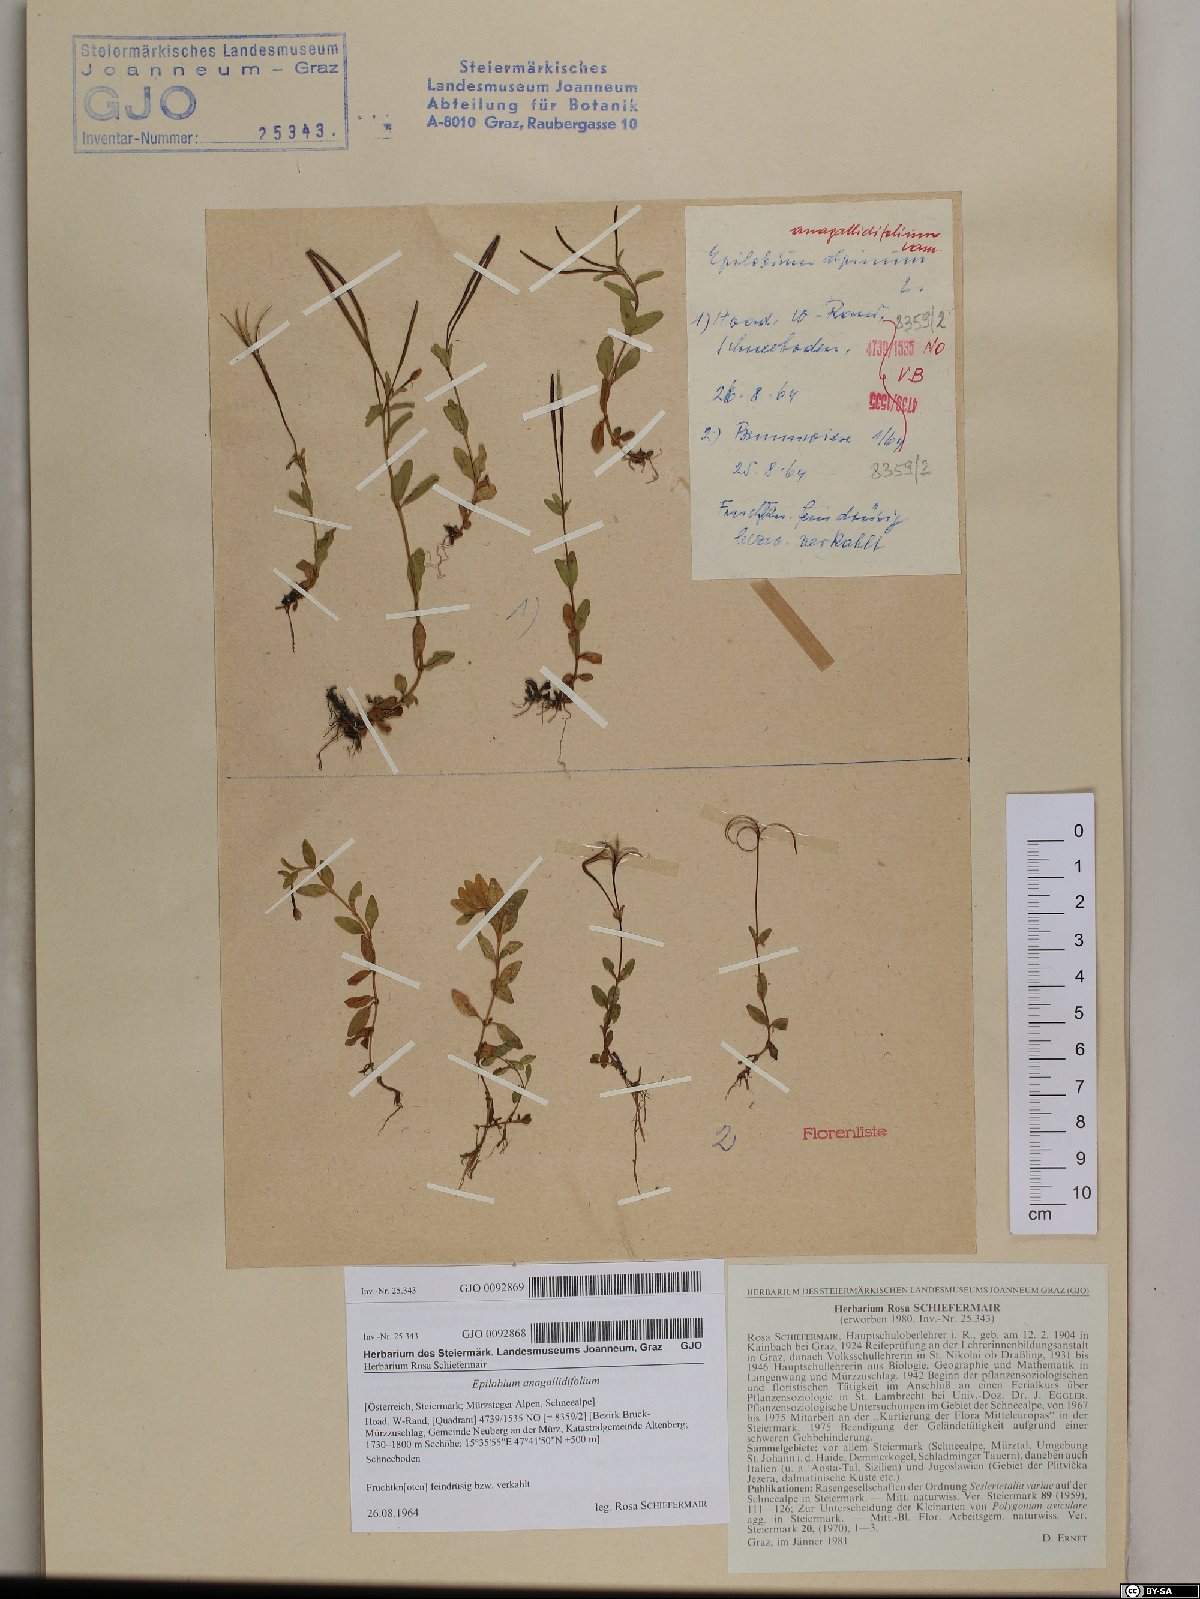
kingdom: Plantae
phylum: Tracheophyta
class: Magnoliopsida
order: Myrtales
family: Onagraceae
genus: Epilobium
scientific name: Epilobium anagallidifolium
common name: Alpine willowherb
